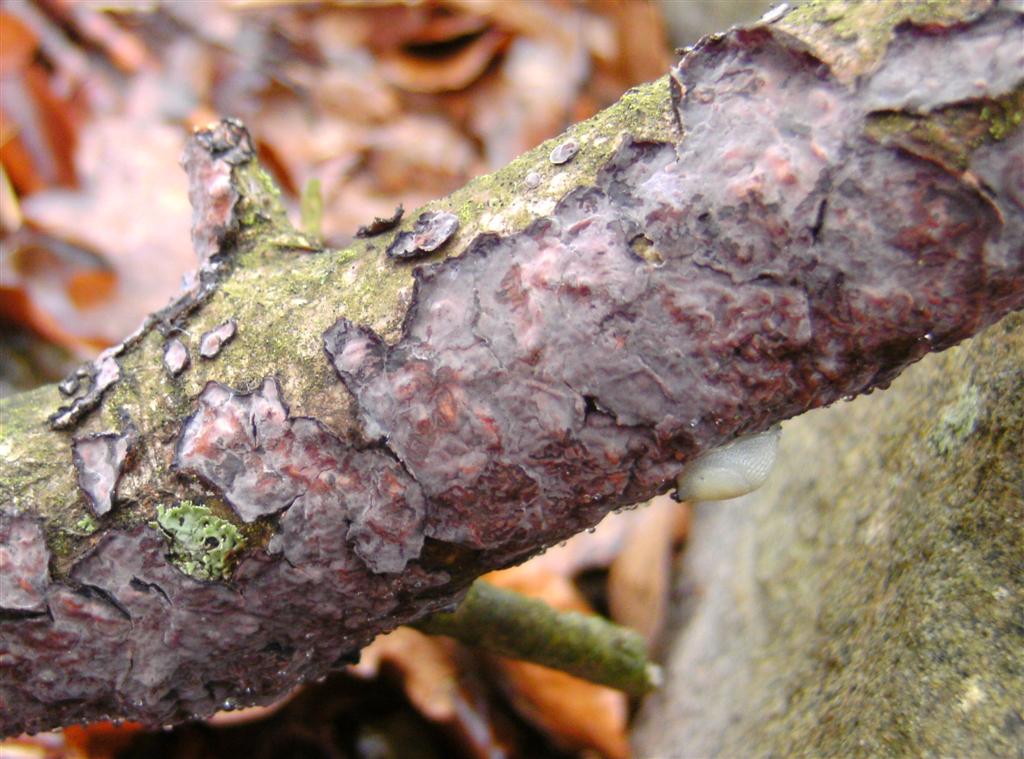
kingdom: Fungi
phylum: Basidiomycota
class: Agaricomycetes
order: Russulales
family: Peniophoraceae
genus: Peniophora
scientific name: Peniophora quercina
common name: ege-voksskind
